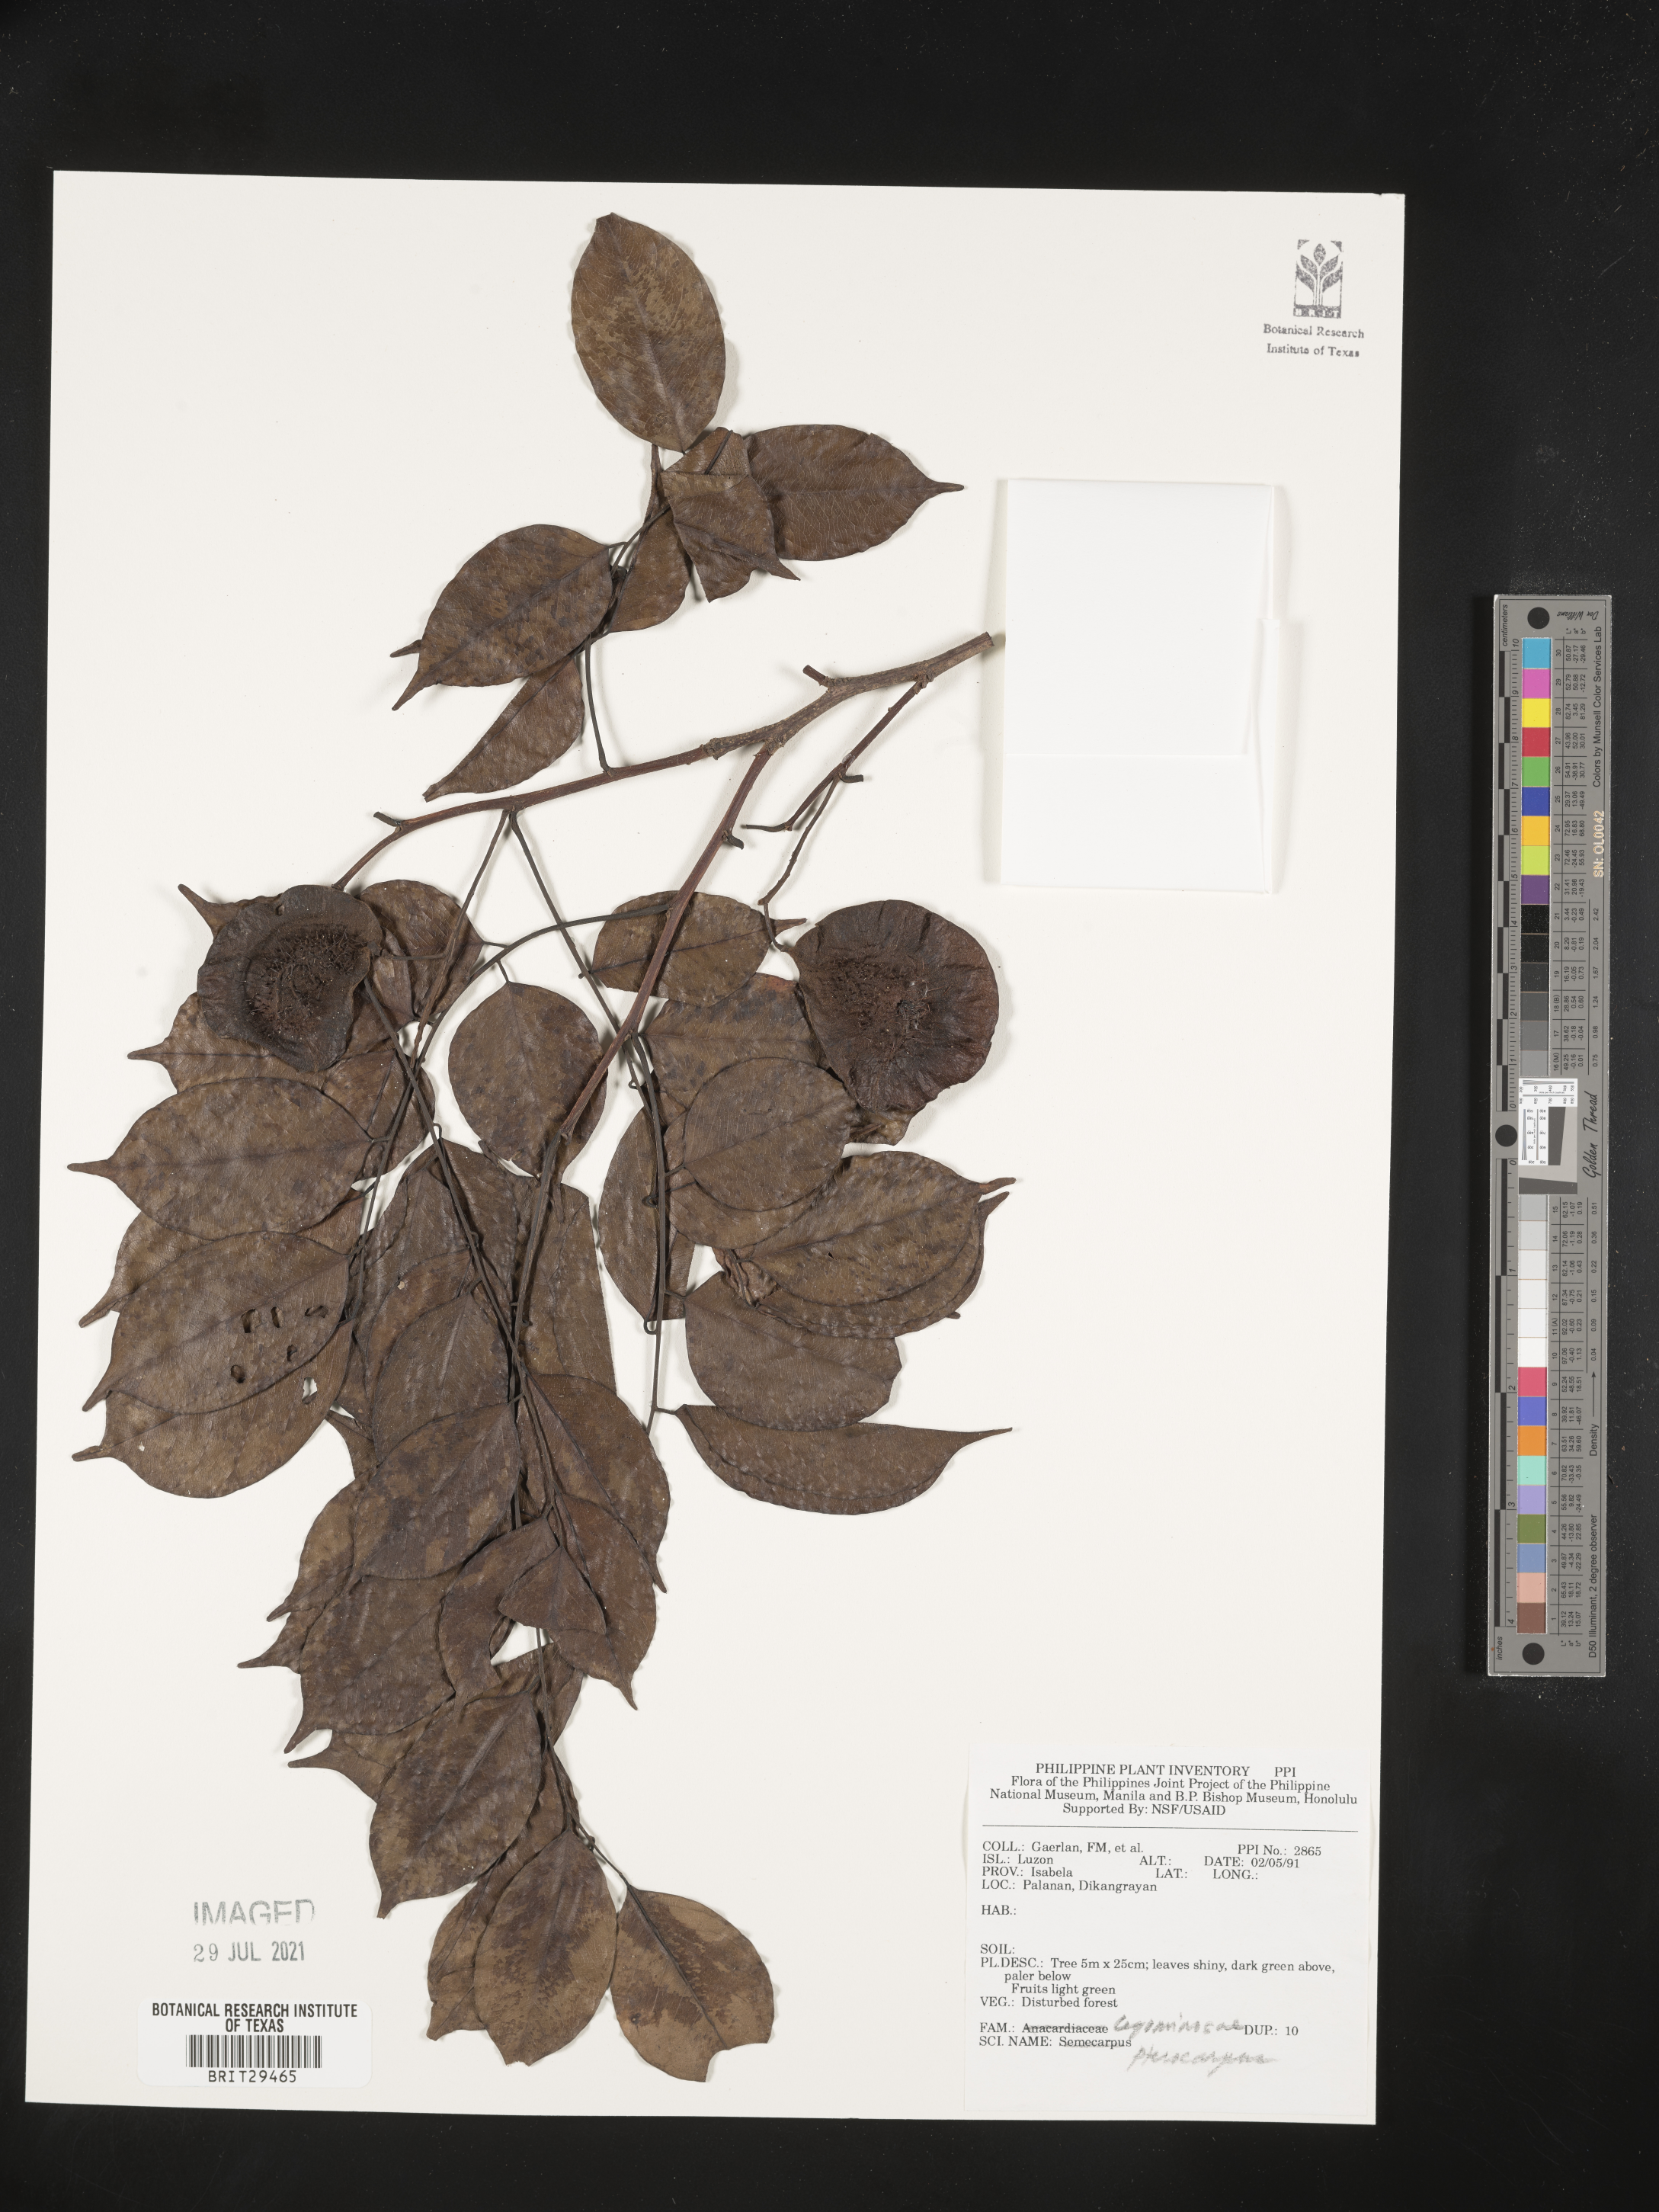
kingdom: Plantae
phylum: Tracheophyta
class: Magnoliopsida
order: Fabales
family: Fabaceae
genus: Pterocarpus
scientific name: Pterocarpus
